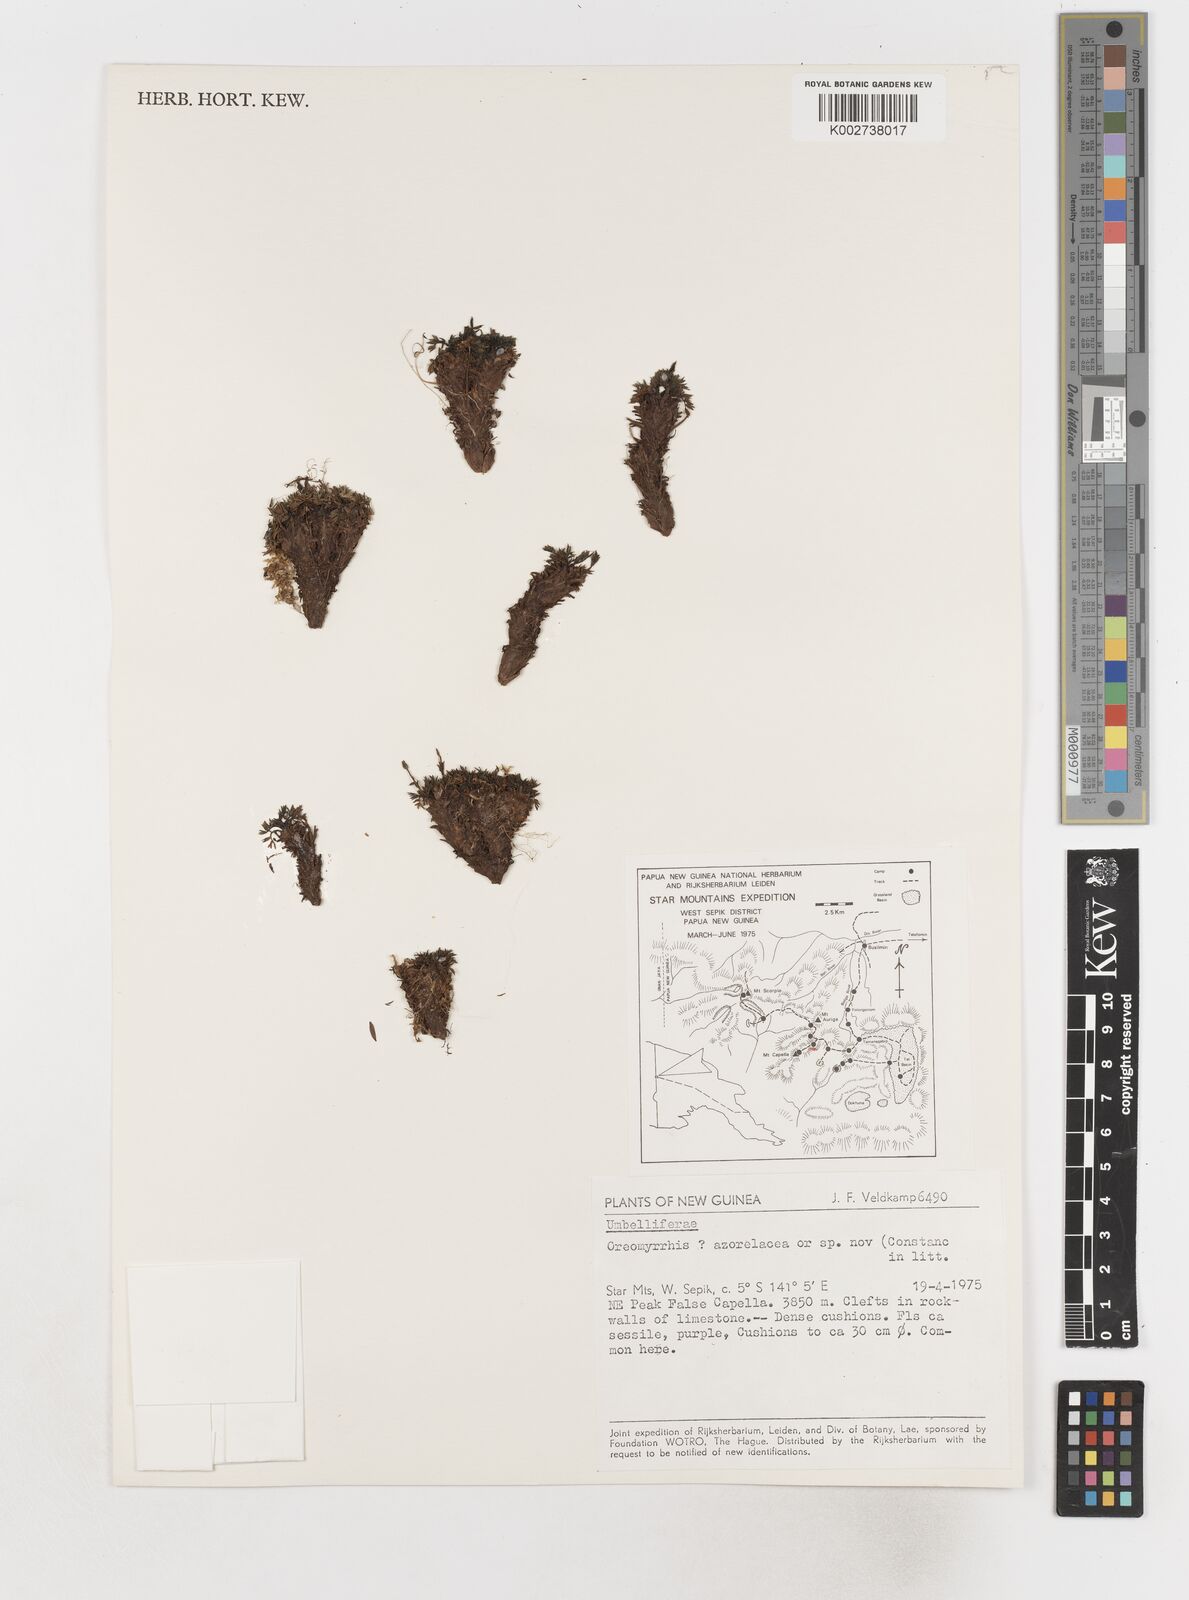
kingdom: Plantae
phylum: Tracheophyta
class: Magnoliopsida
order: Apiales
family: Apiaceae
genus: Chaerophyllum
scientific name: Chaerophyllum azorellaceum
